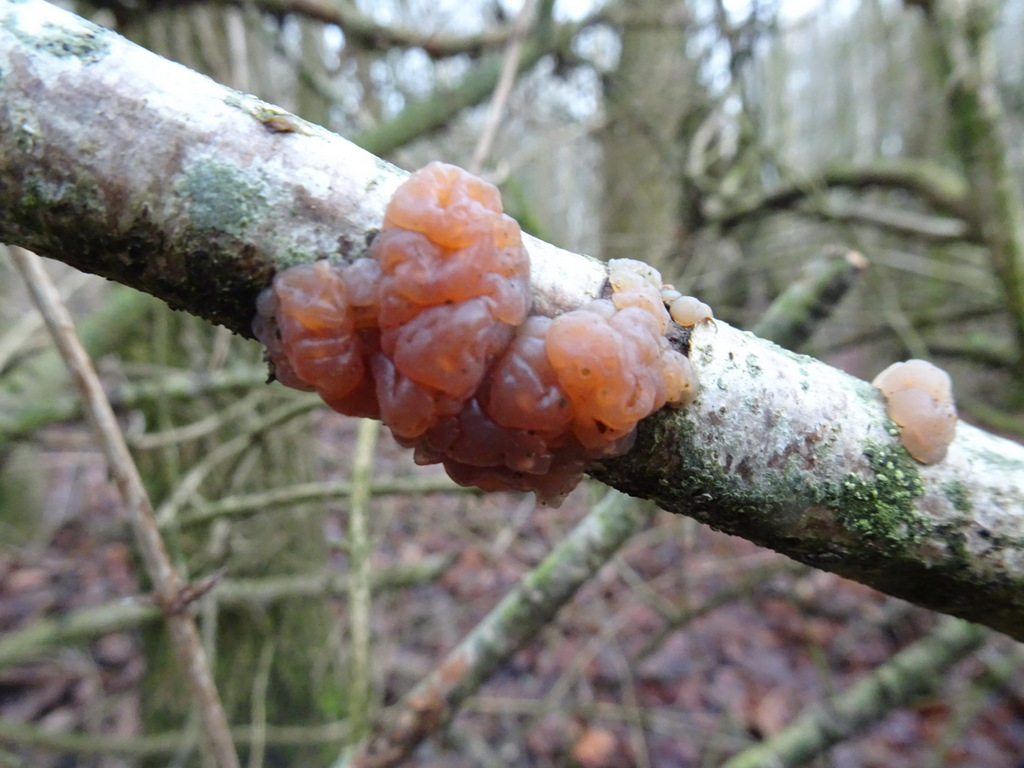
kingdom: Fungi
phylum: Basidiomycota
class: Agaricomycetes
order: Auriculariales
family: Hyaloriaceae
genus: Myxarium
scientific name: Myxarium hyalinum
